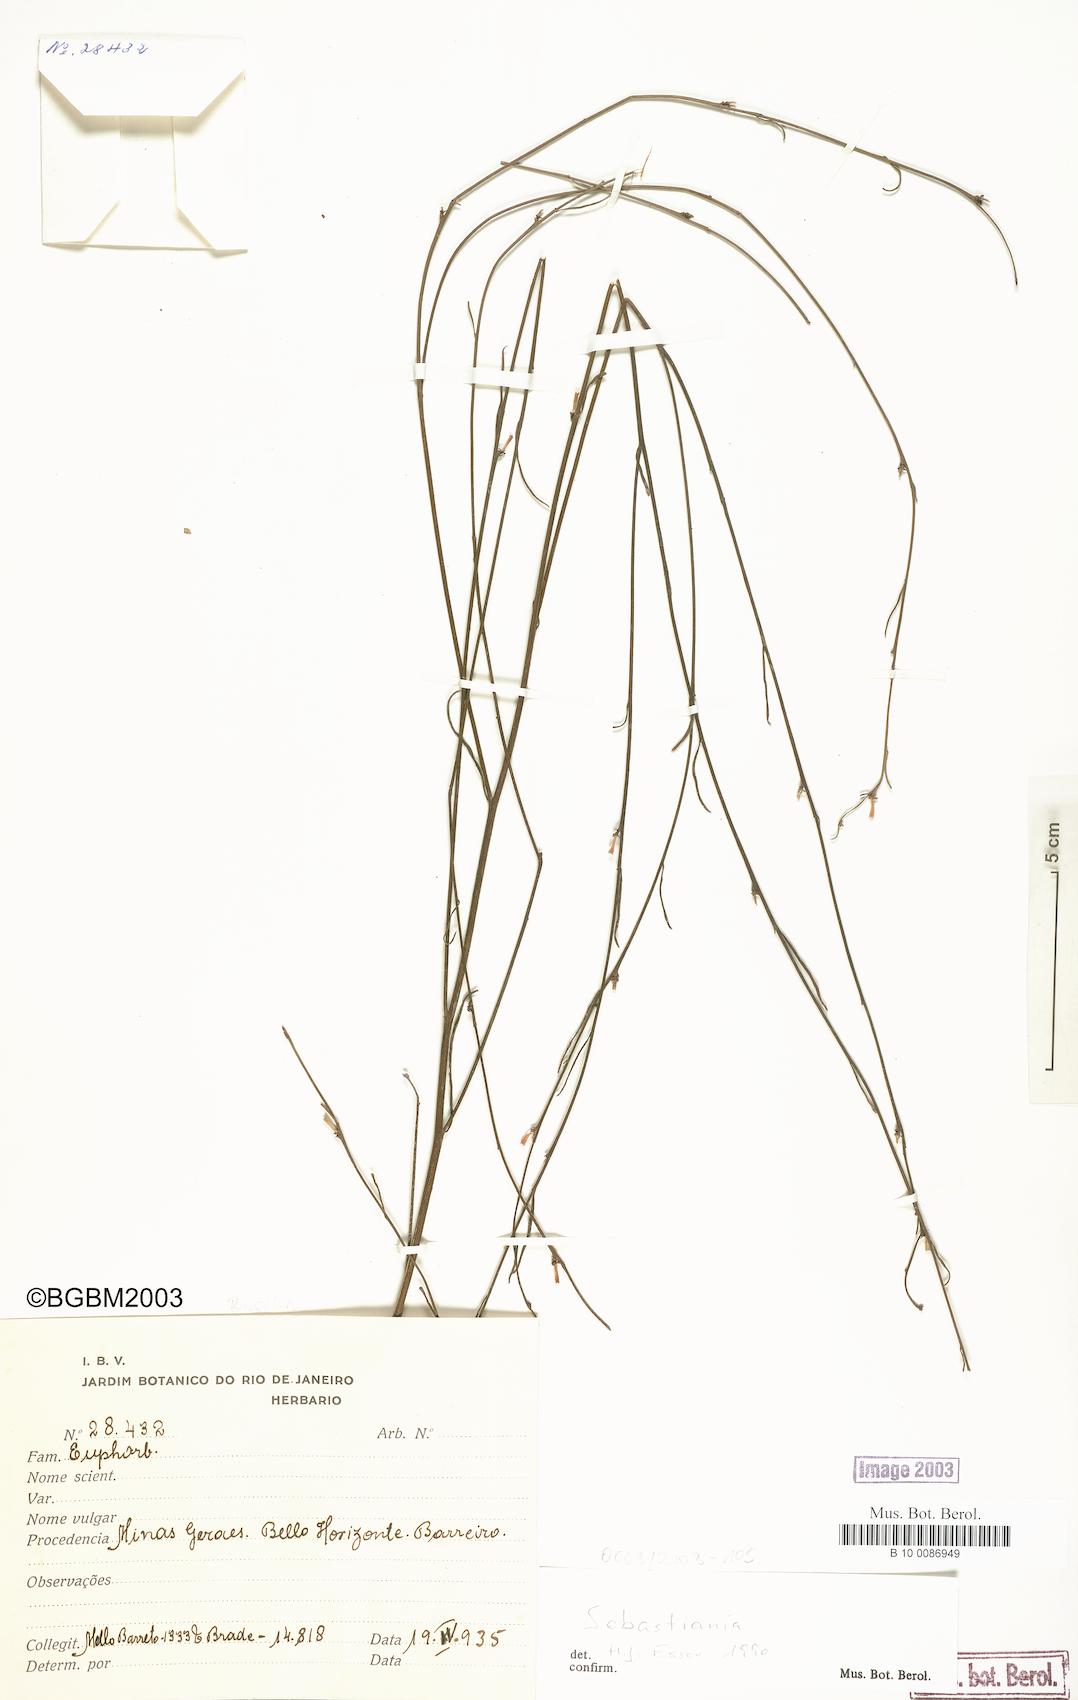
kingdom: Plantae
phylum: Tracheophyta
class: Magnoliopsida
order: Malpighiales
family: Euphorbiaceae
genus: Microstachys
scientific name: Microstachys bidentata
